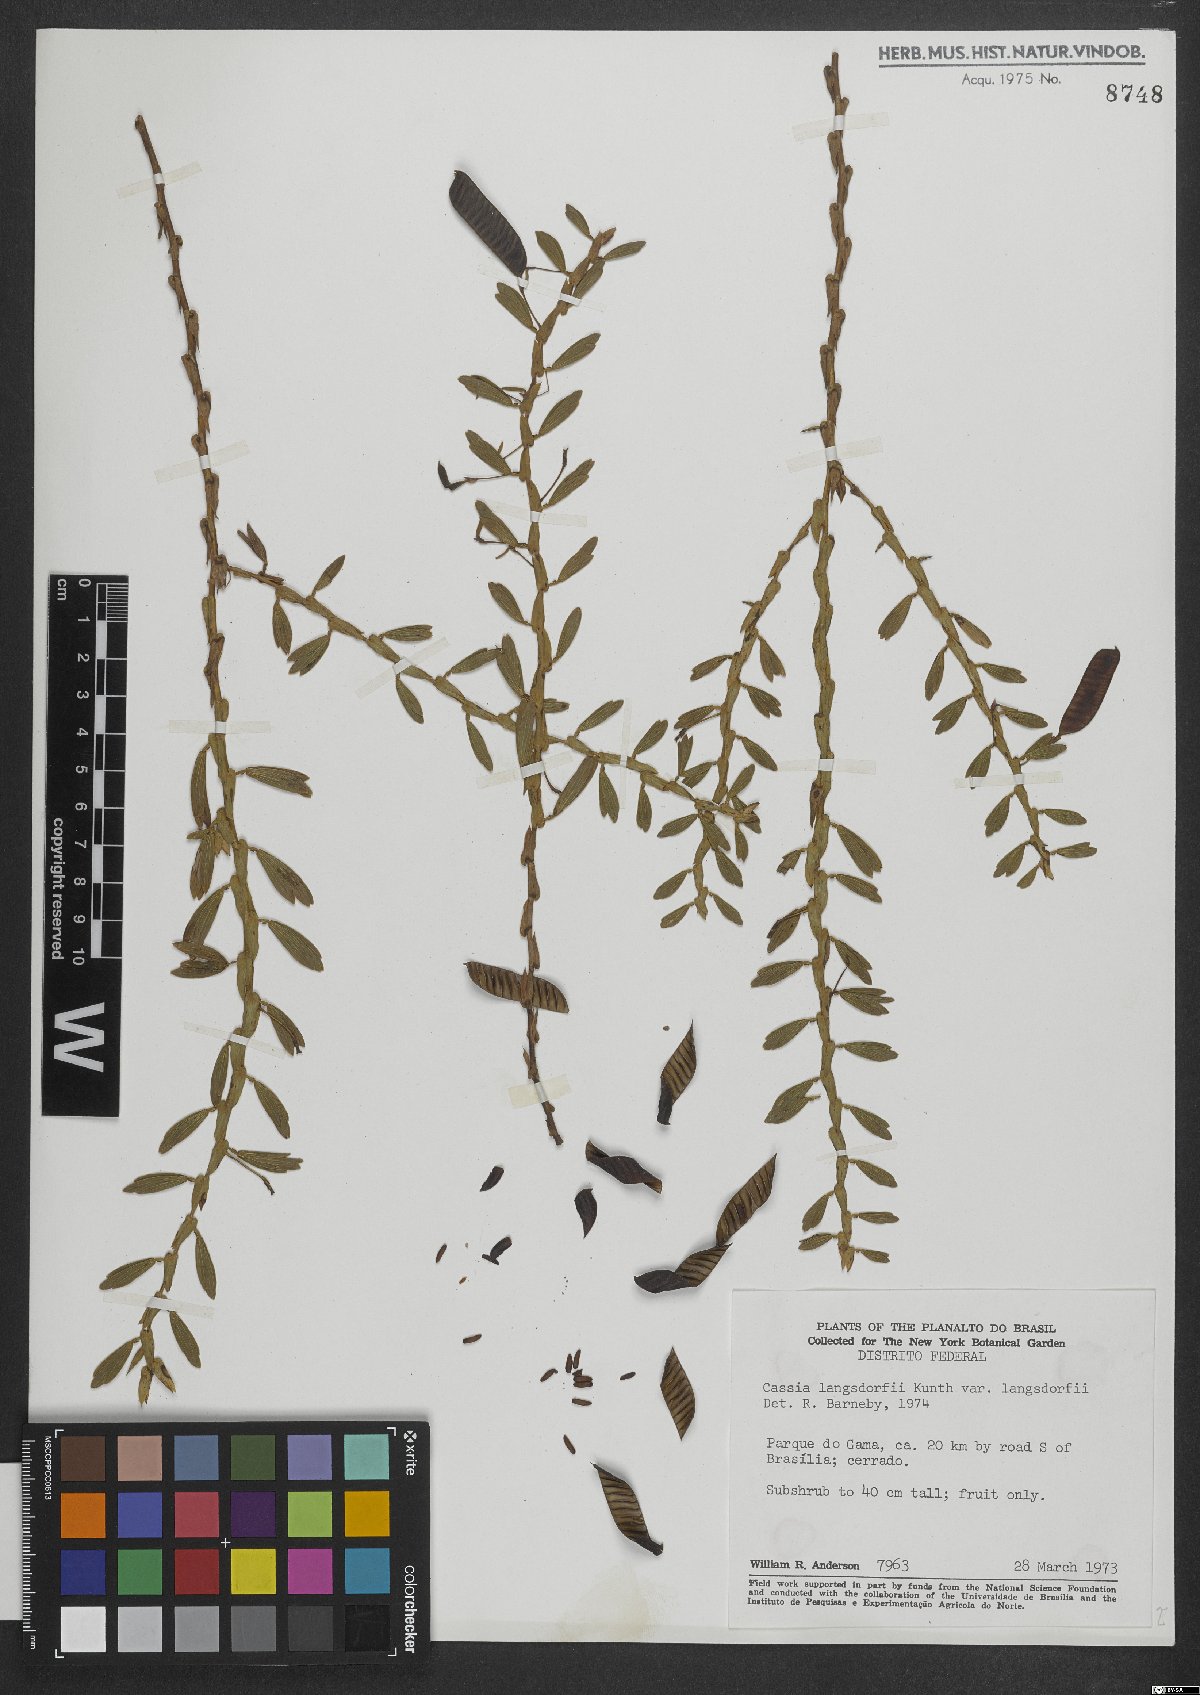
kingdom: Plantae
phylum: Tracheophyta
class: Magnoliopsida
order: Fabales
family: Fabaceae
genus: Chamaecrista
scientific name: Chamaecrista langsdorffii
